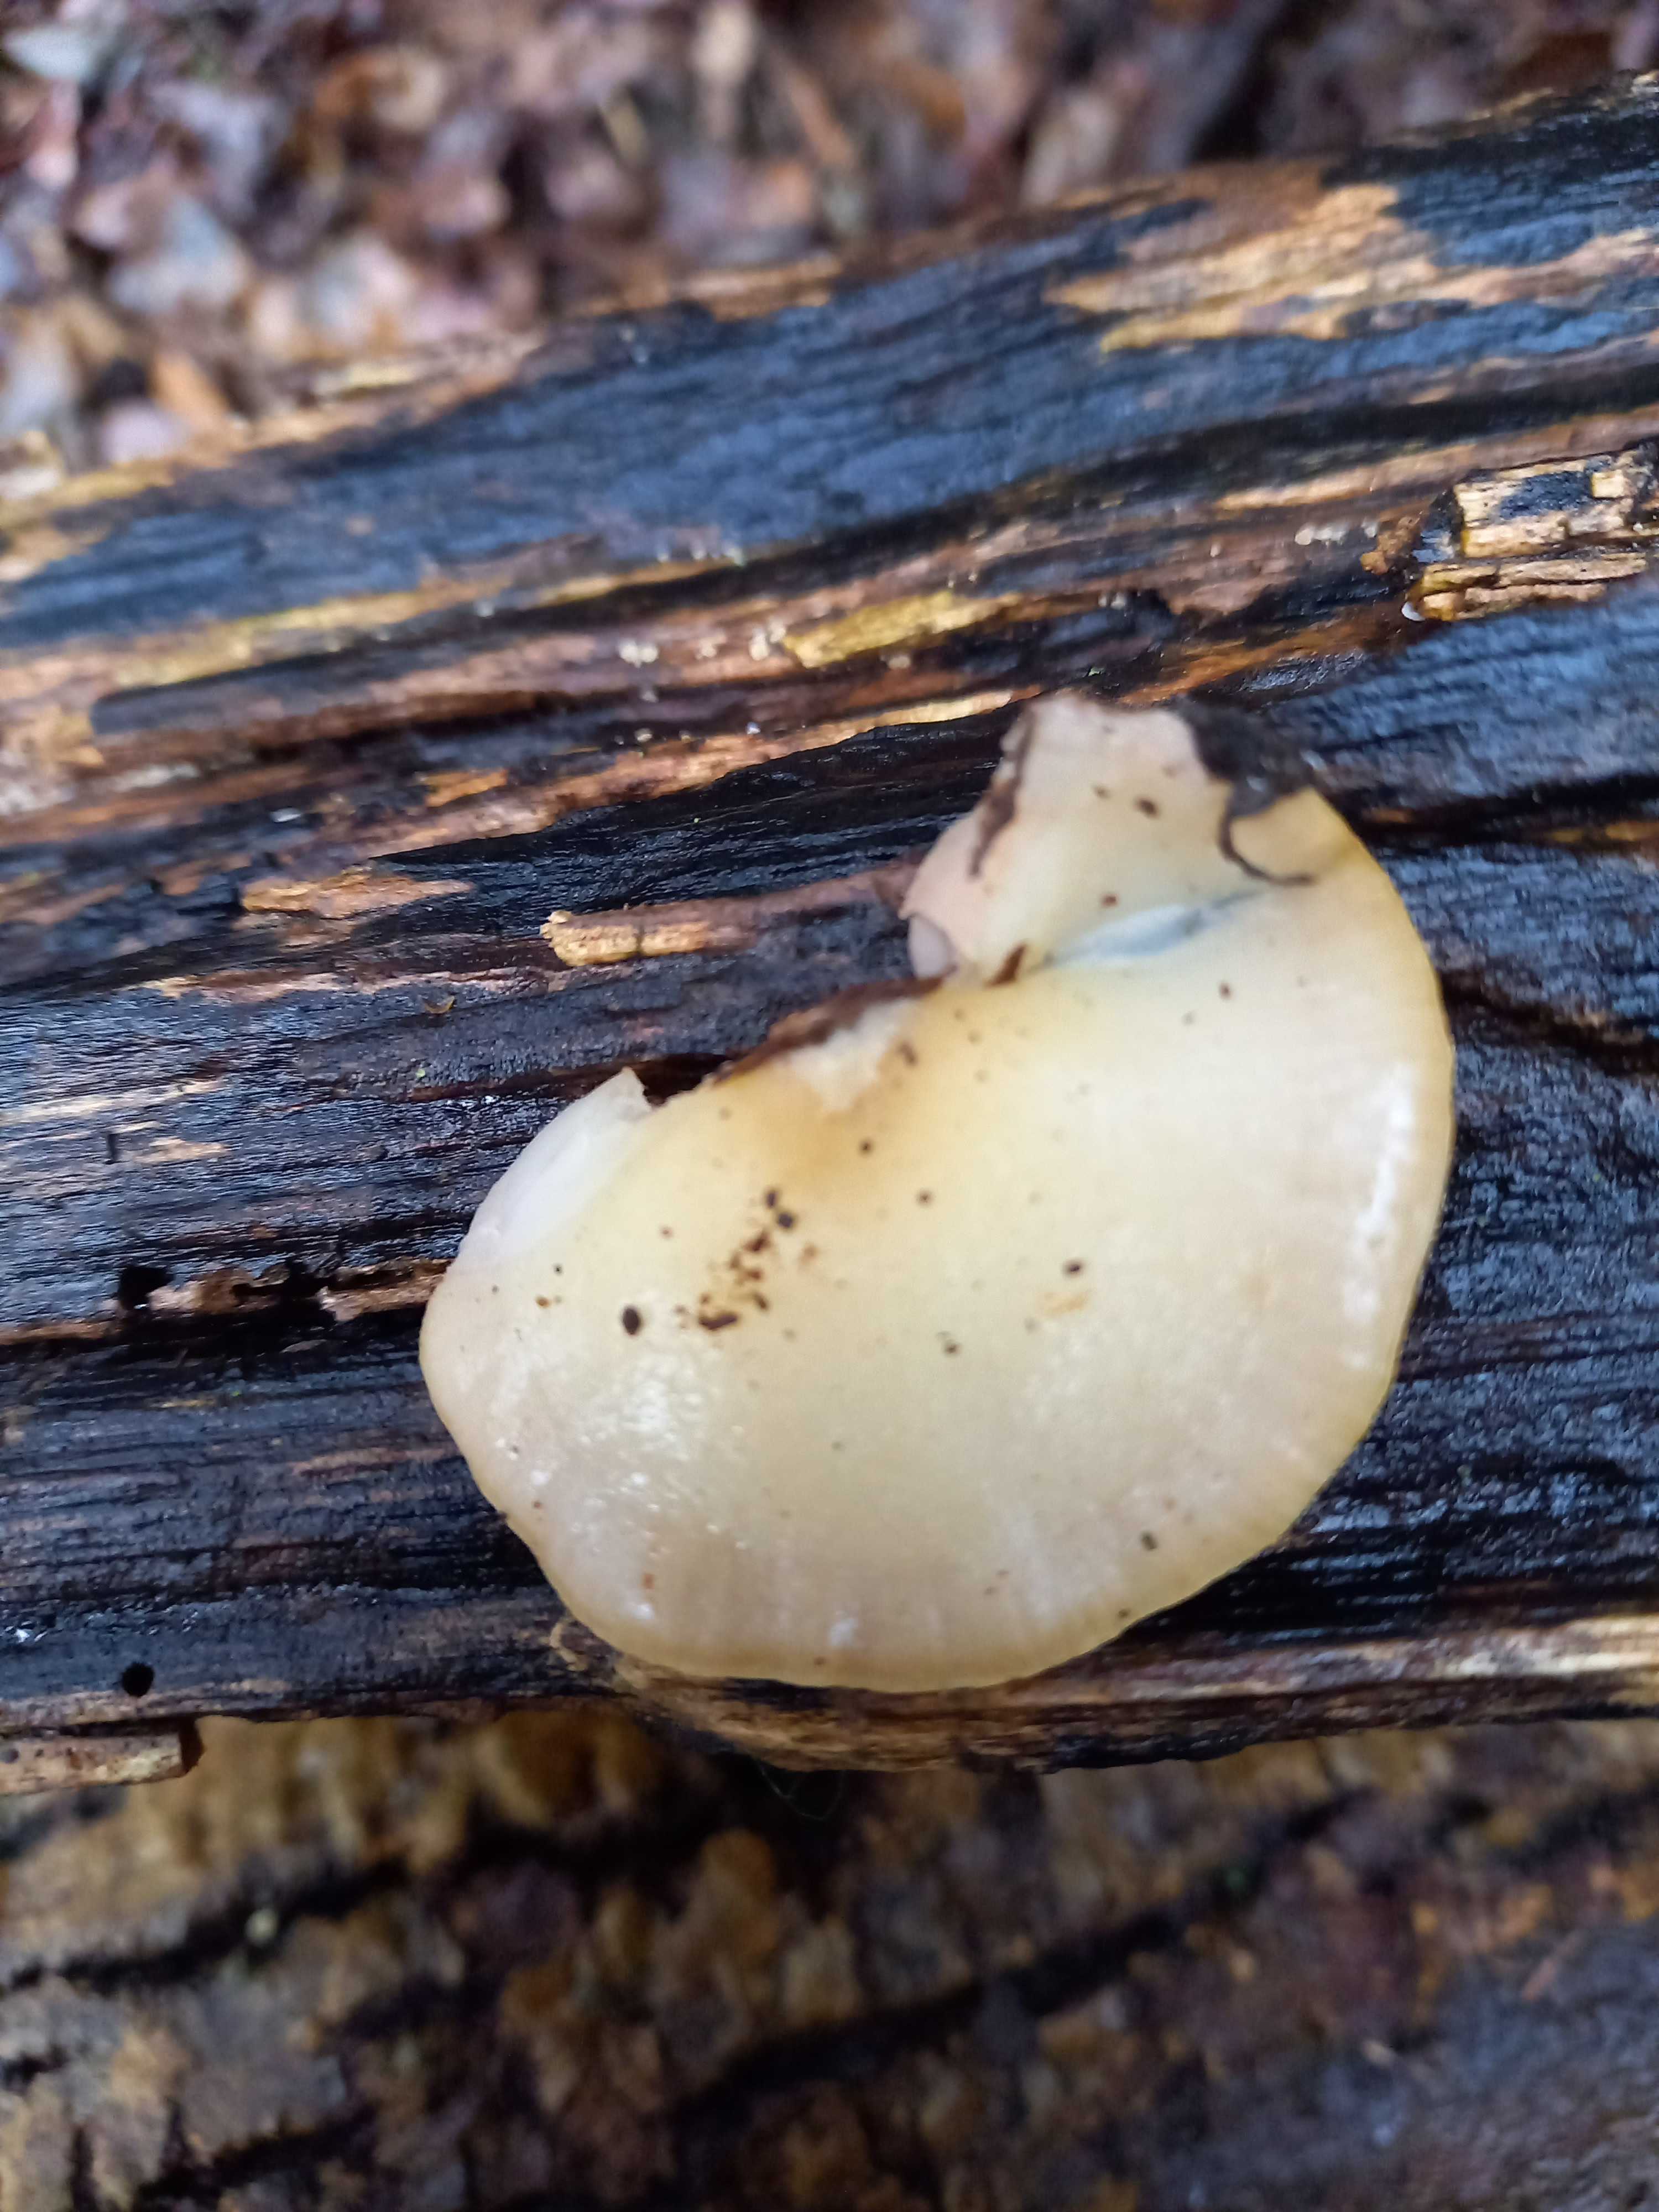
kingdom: Fungi
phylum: Basidiomycota
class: Agaricomycetes
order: Agaricales
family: Crepidotaceae
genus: Crepidotus
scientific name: Crepidotus mollis
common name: blød muslingesvamp
